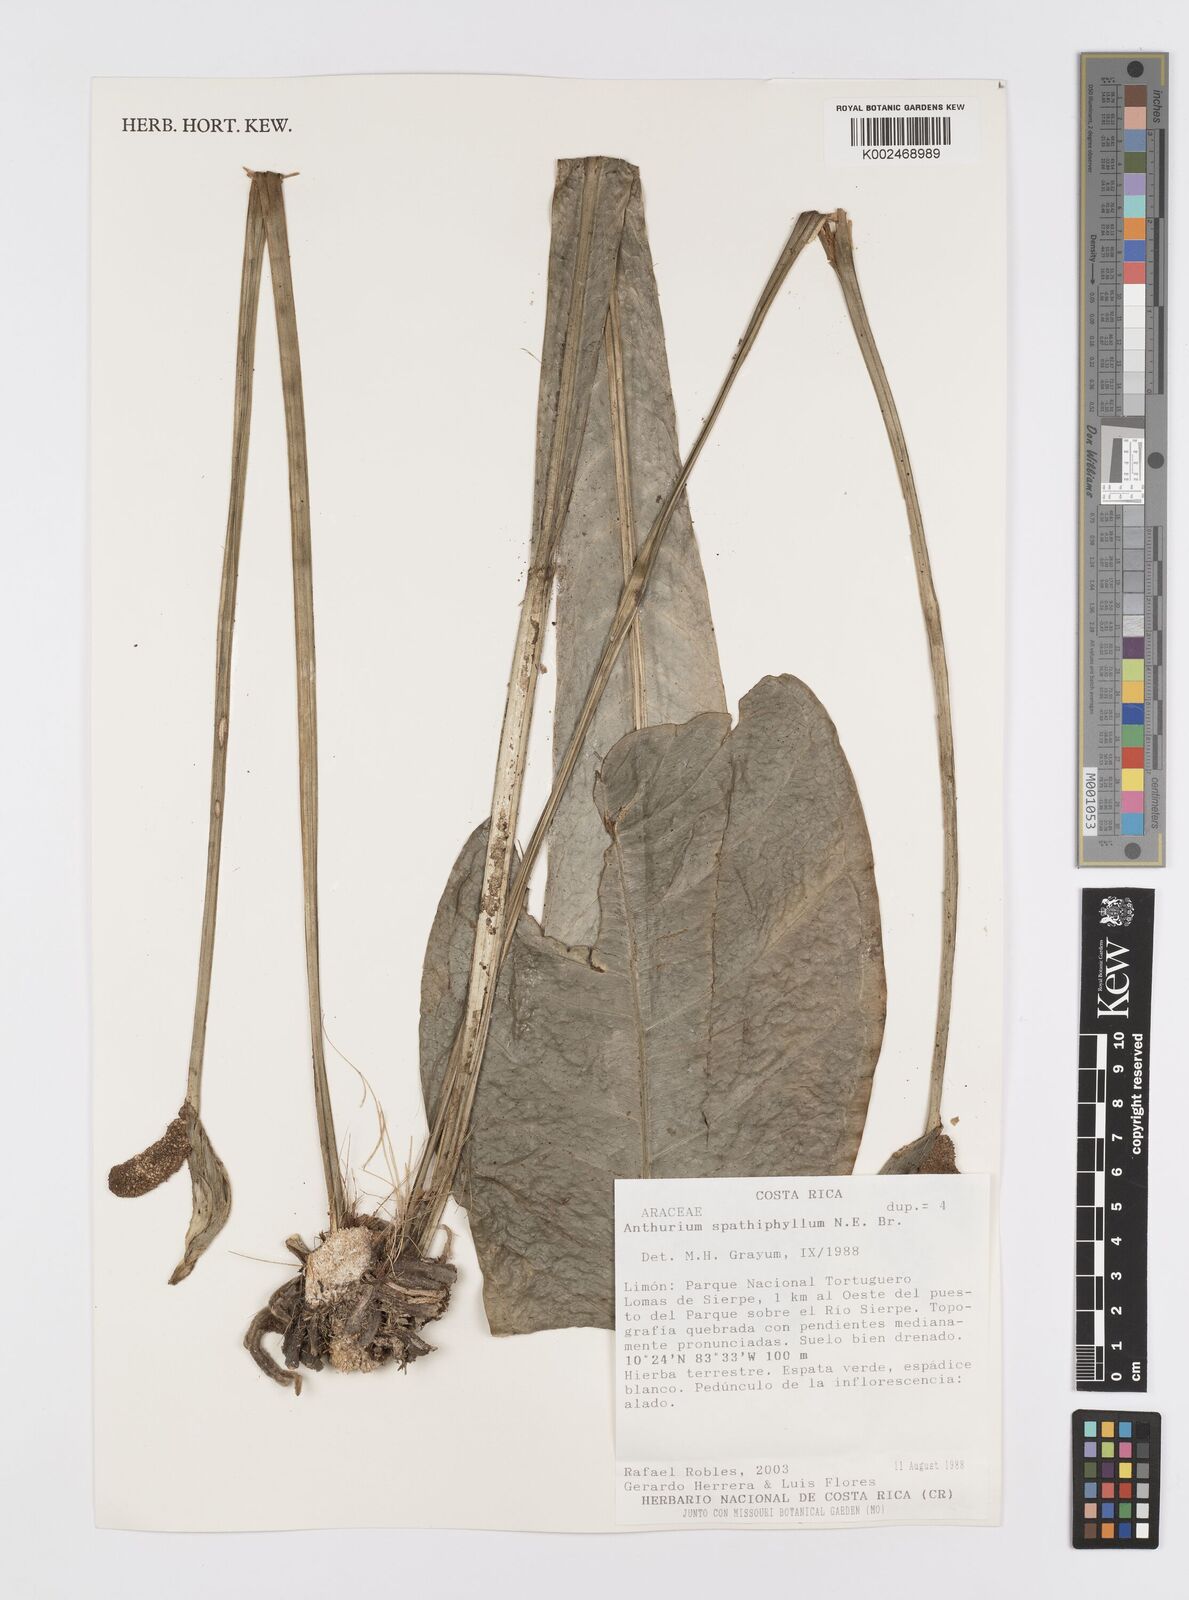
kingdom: Plantae
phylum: Tracheophyta
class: Liliopsida
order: Alismatales
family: Araceae
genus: Anthurium
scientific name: Anthurium spathiphyllum
